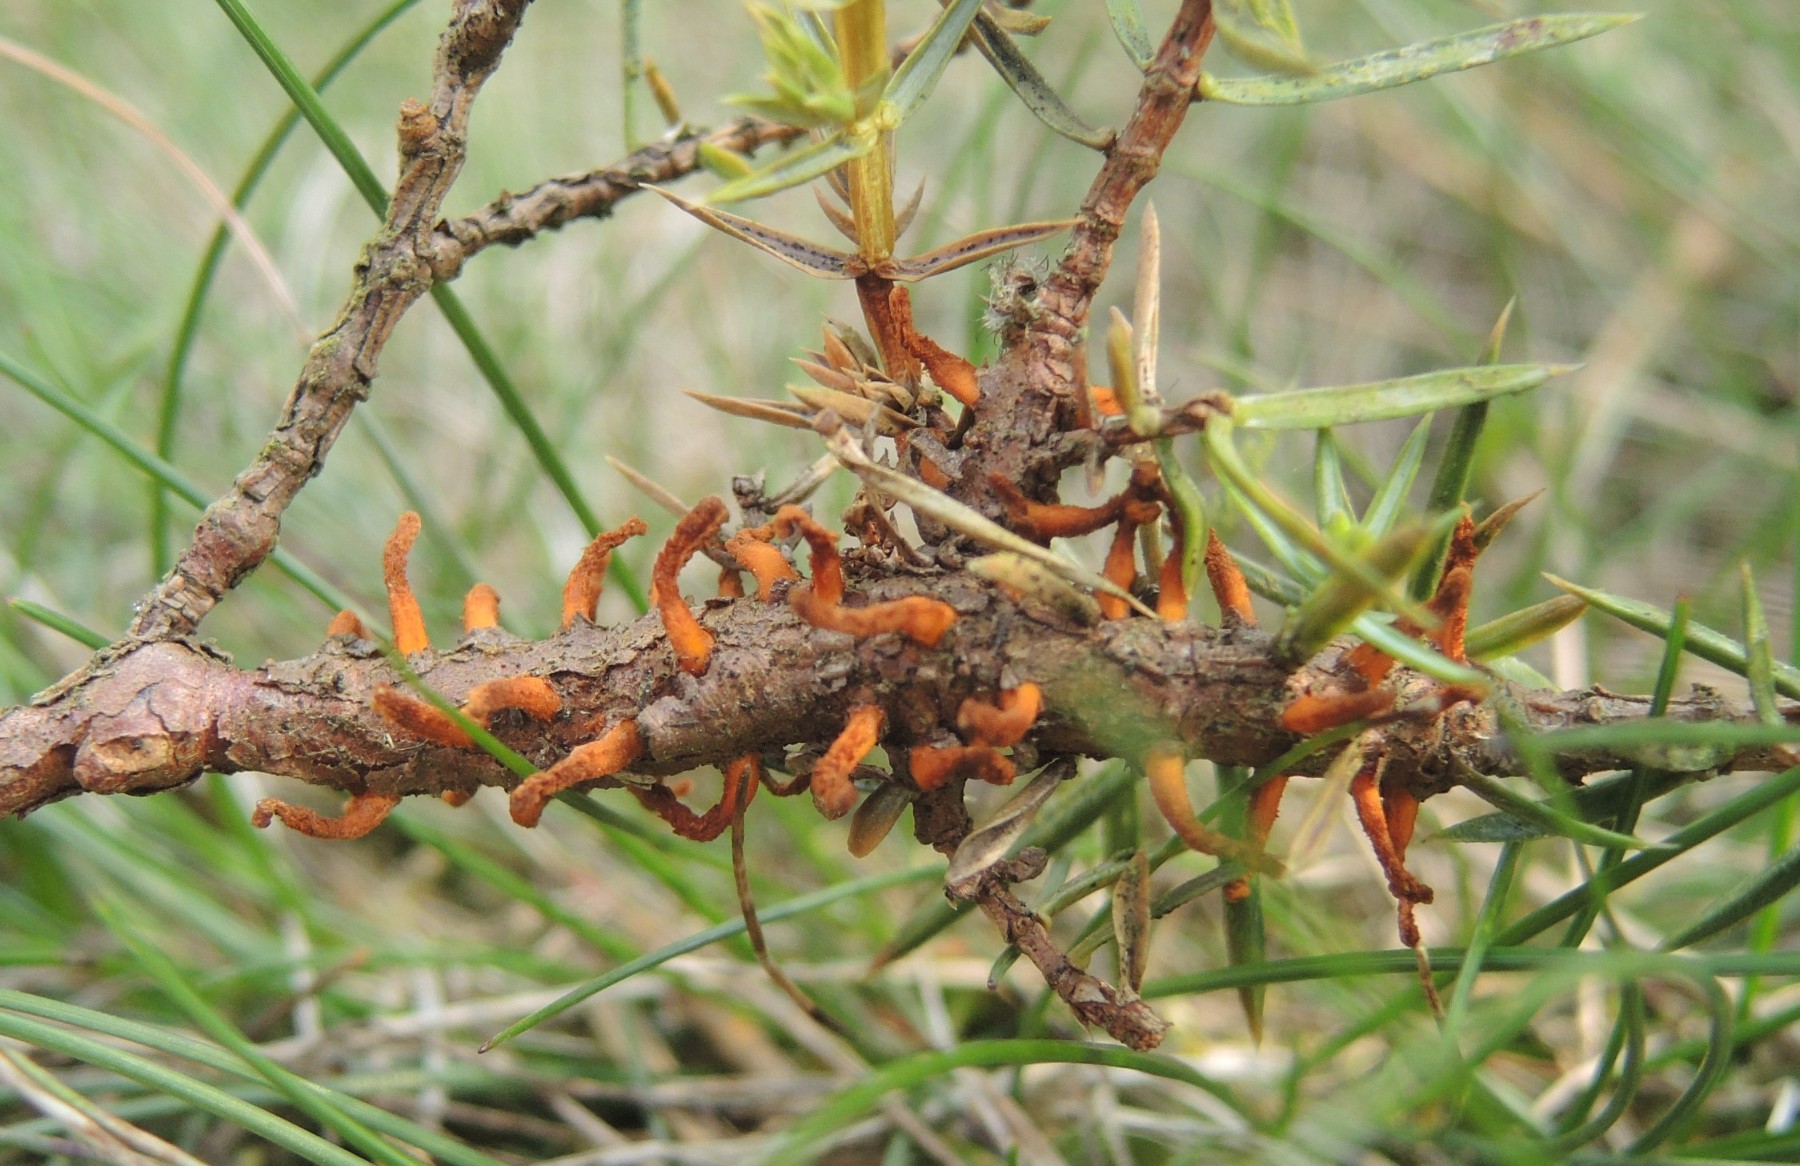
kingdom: Fungi
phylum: Basidiomycota
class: Pucciniomycetes
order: Pucciniales
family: Gymnosporangiaceae
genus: Gymnosporangium
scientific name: Gymnosporangium clavariiforme
